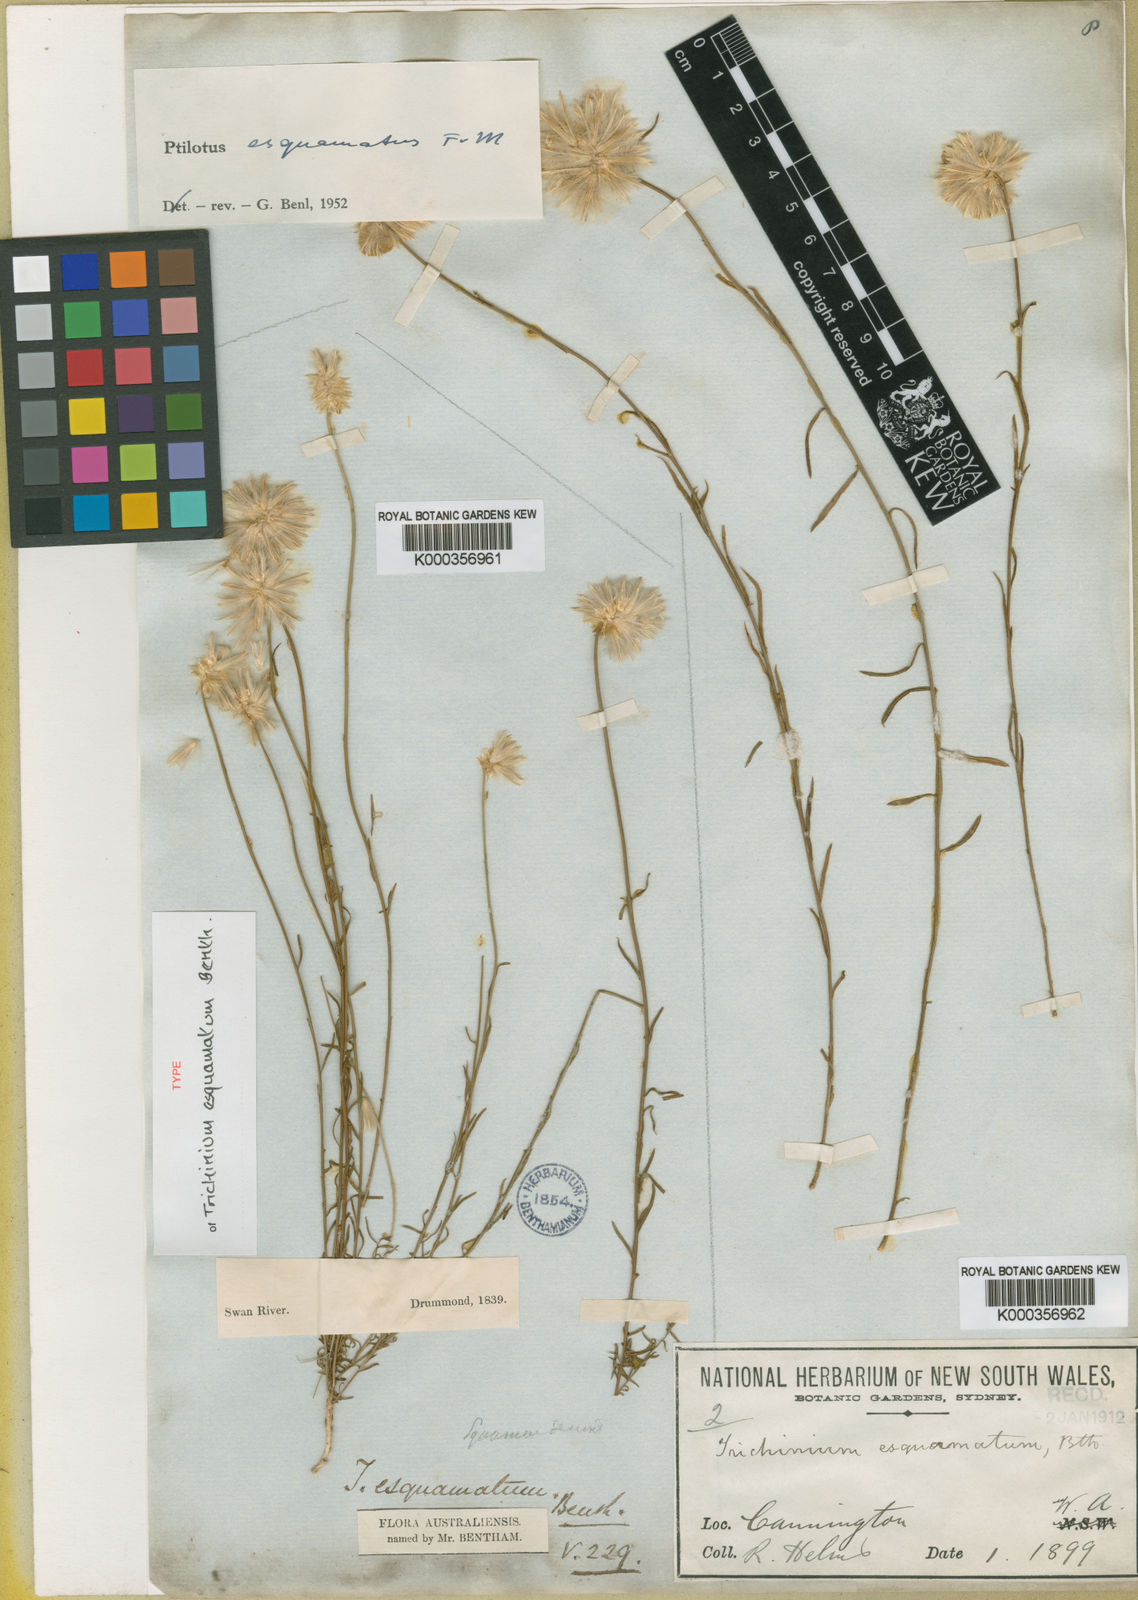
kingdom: Plantae
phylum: Tracheophyta
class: Magnoliopsida
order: Caryophyllales
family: Amaranthaceae
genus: Ptilotus
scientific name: Ptilotus esquamatus
